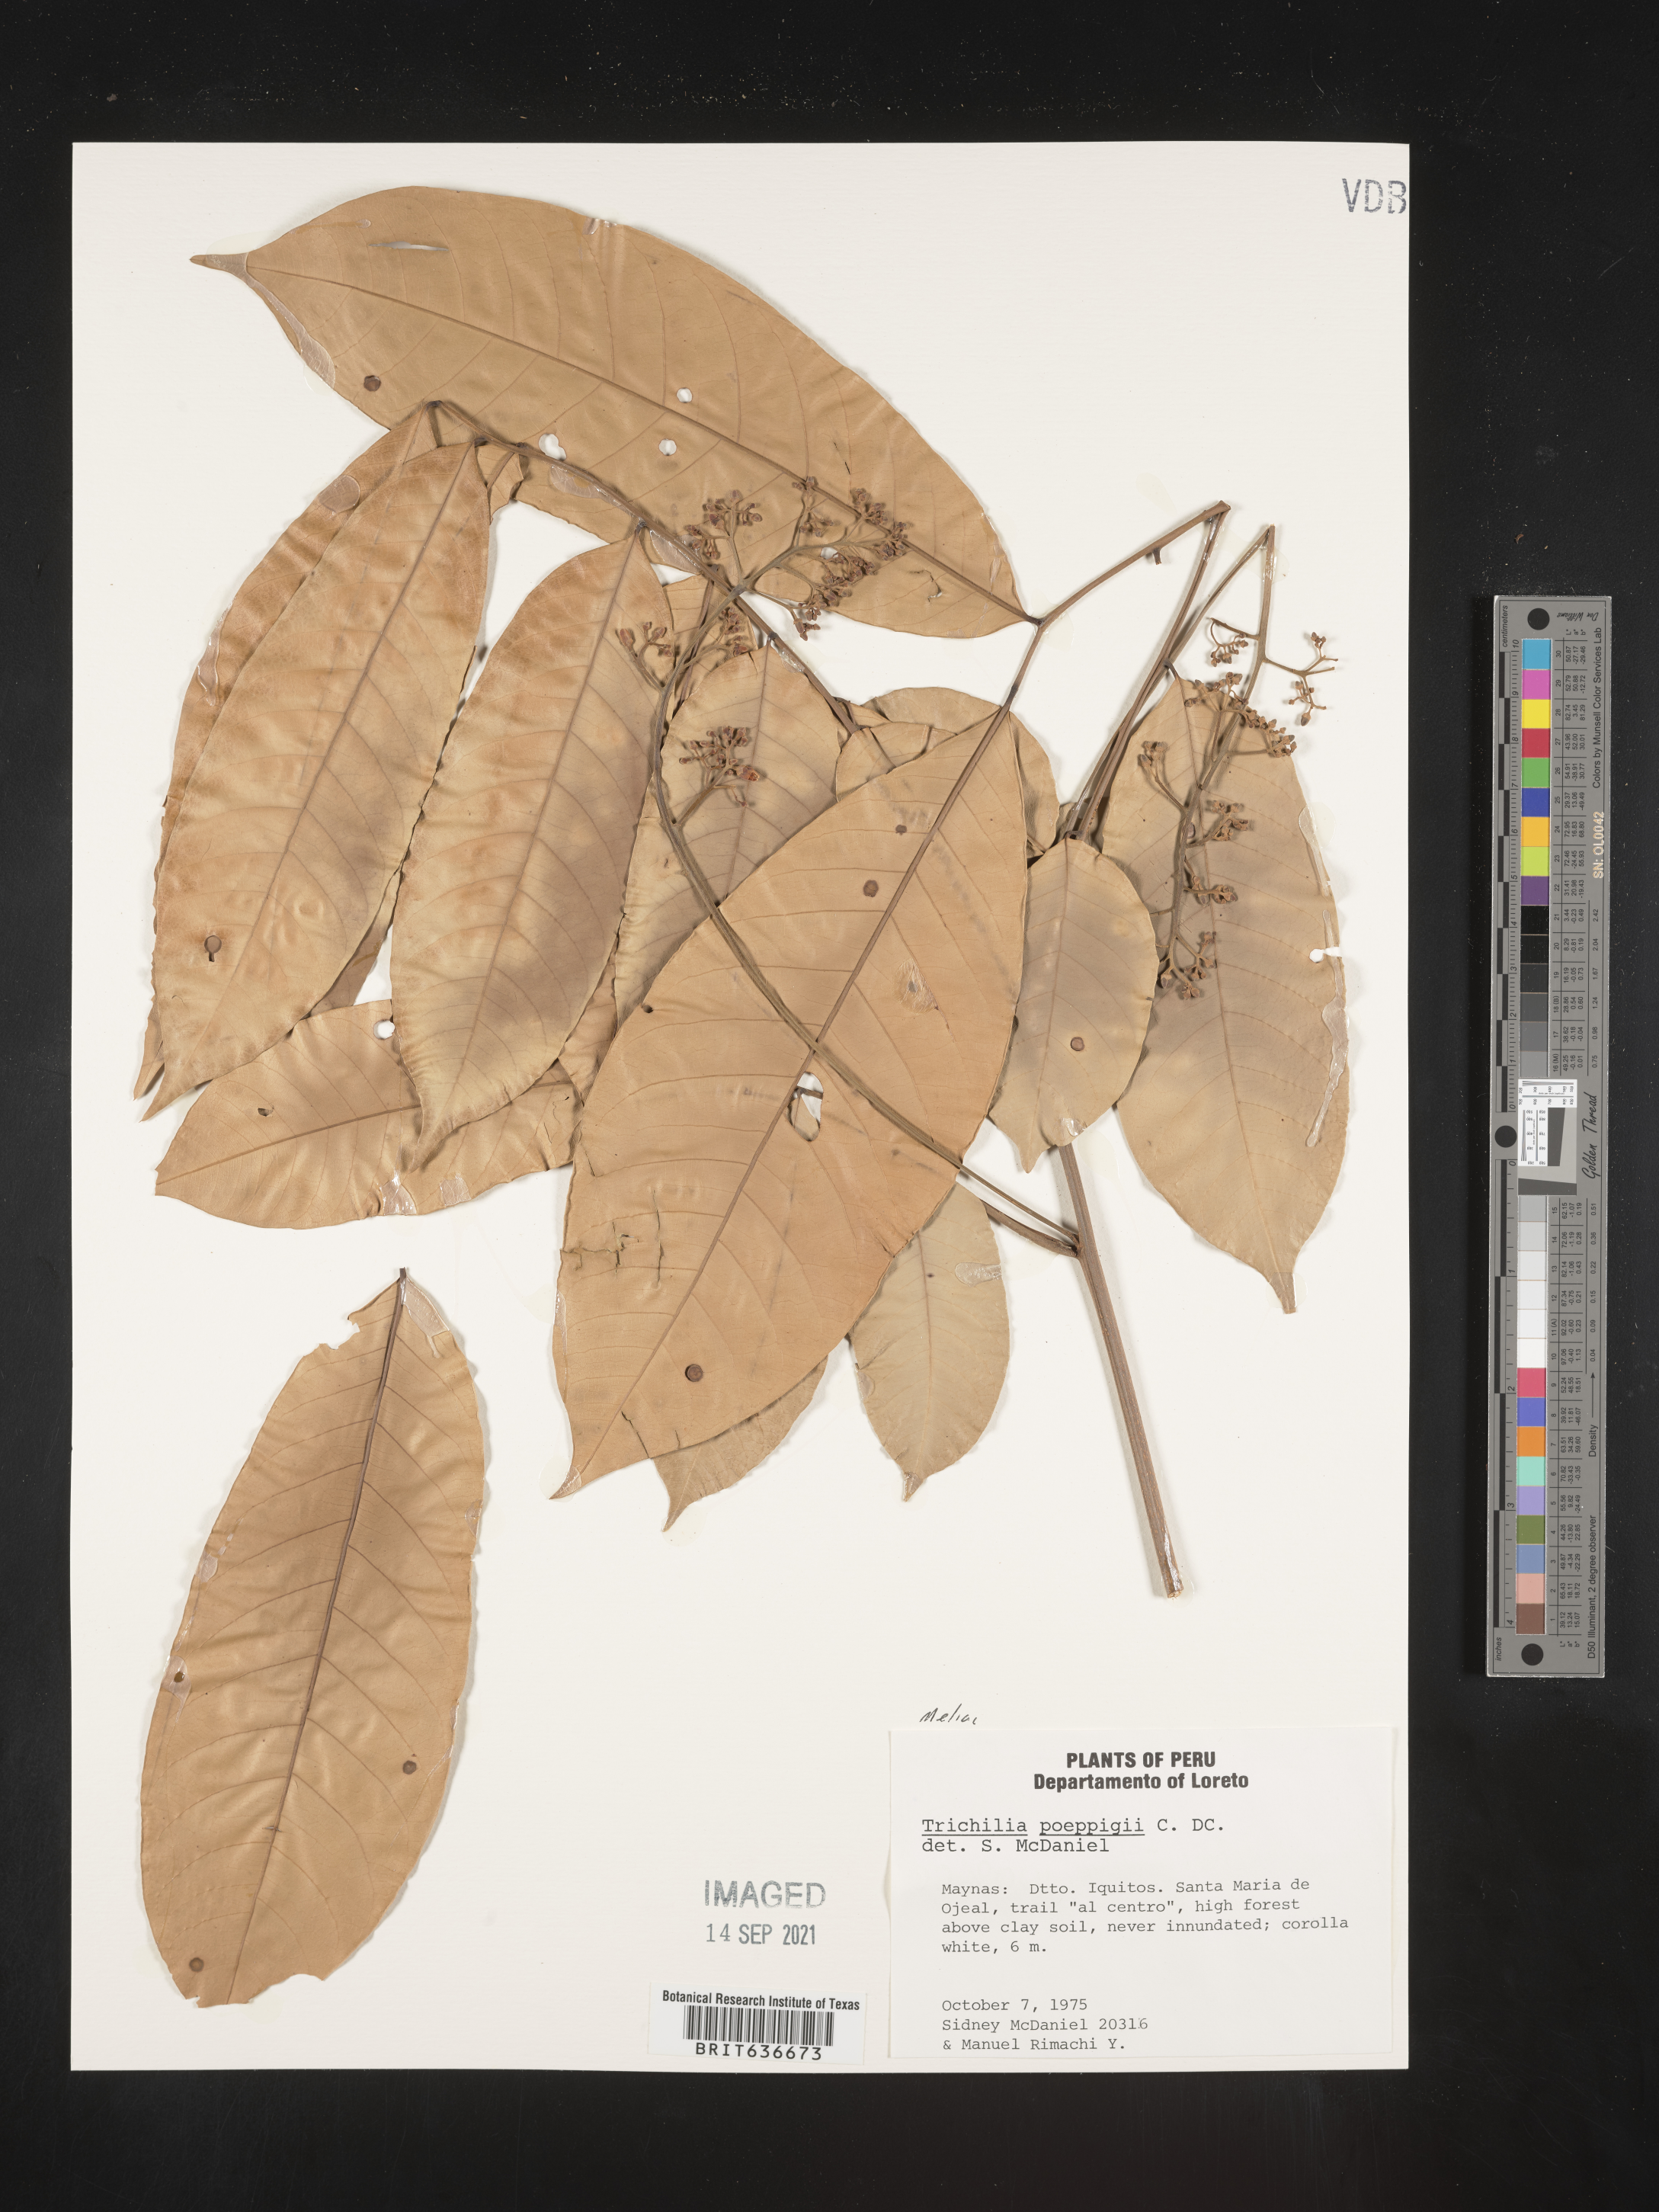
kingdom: Plantae
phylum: Tracheophyta
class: Magnoliopsida
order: Sapindales
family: Meliaceae
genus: Trichilia
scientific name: Trichilia
